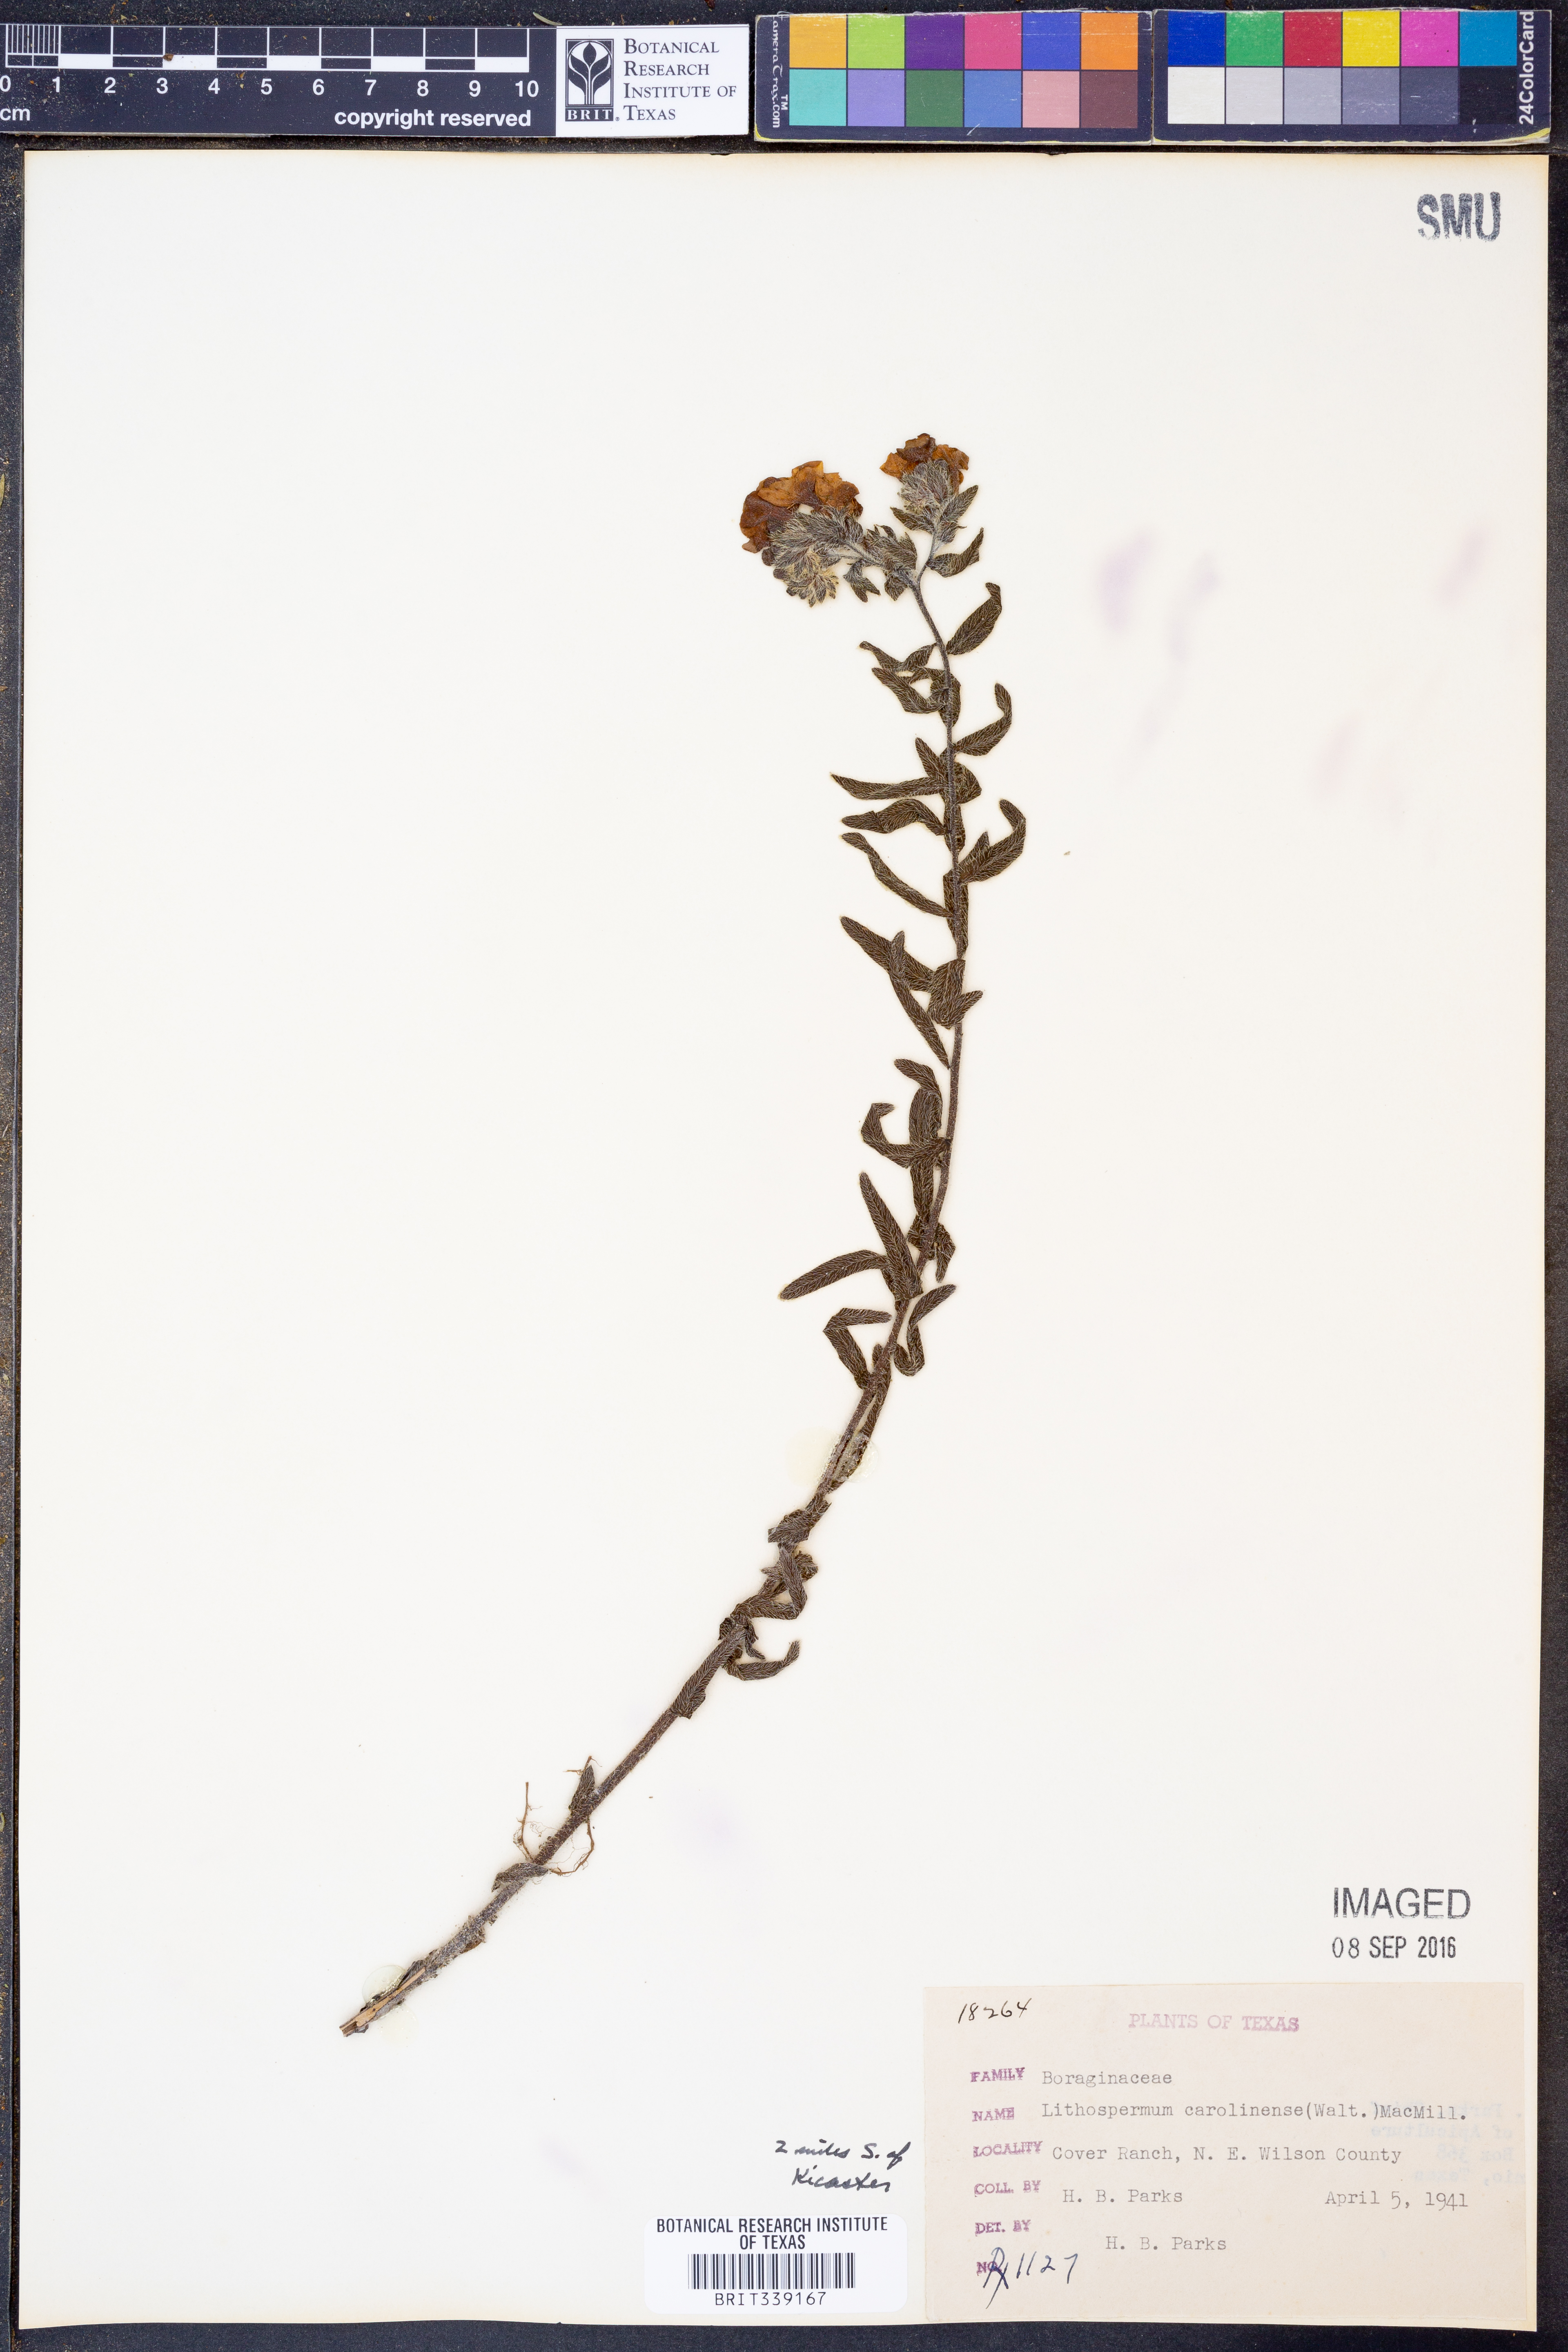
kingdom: Plantae
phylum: Tracheophyta
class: Magnoliopsida
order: Boraginales
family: Boraginaceae
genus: Lithospermum
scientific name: Lithospermum caroliniense
